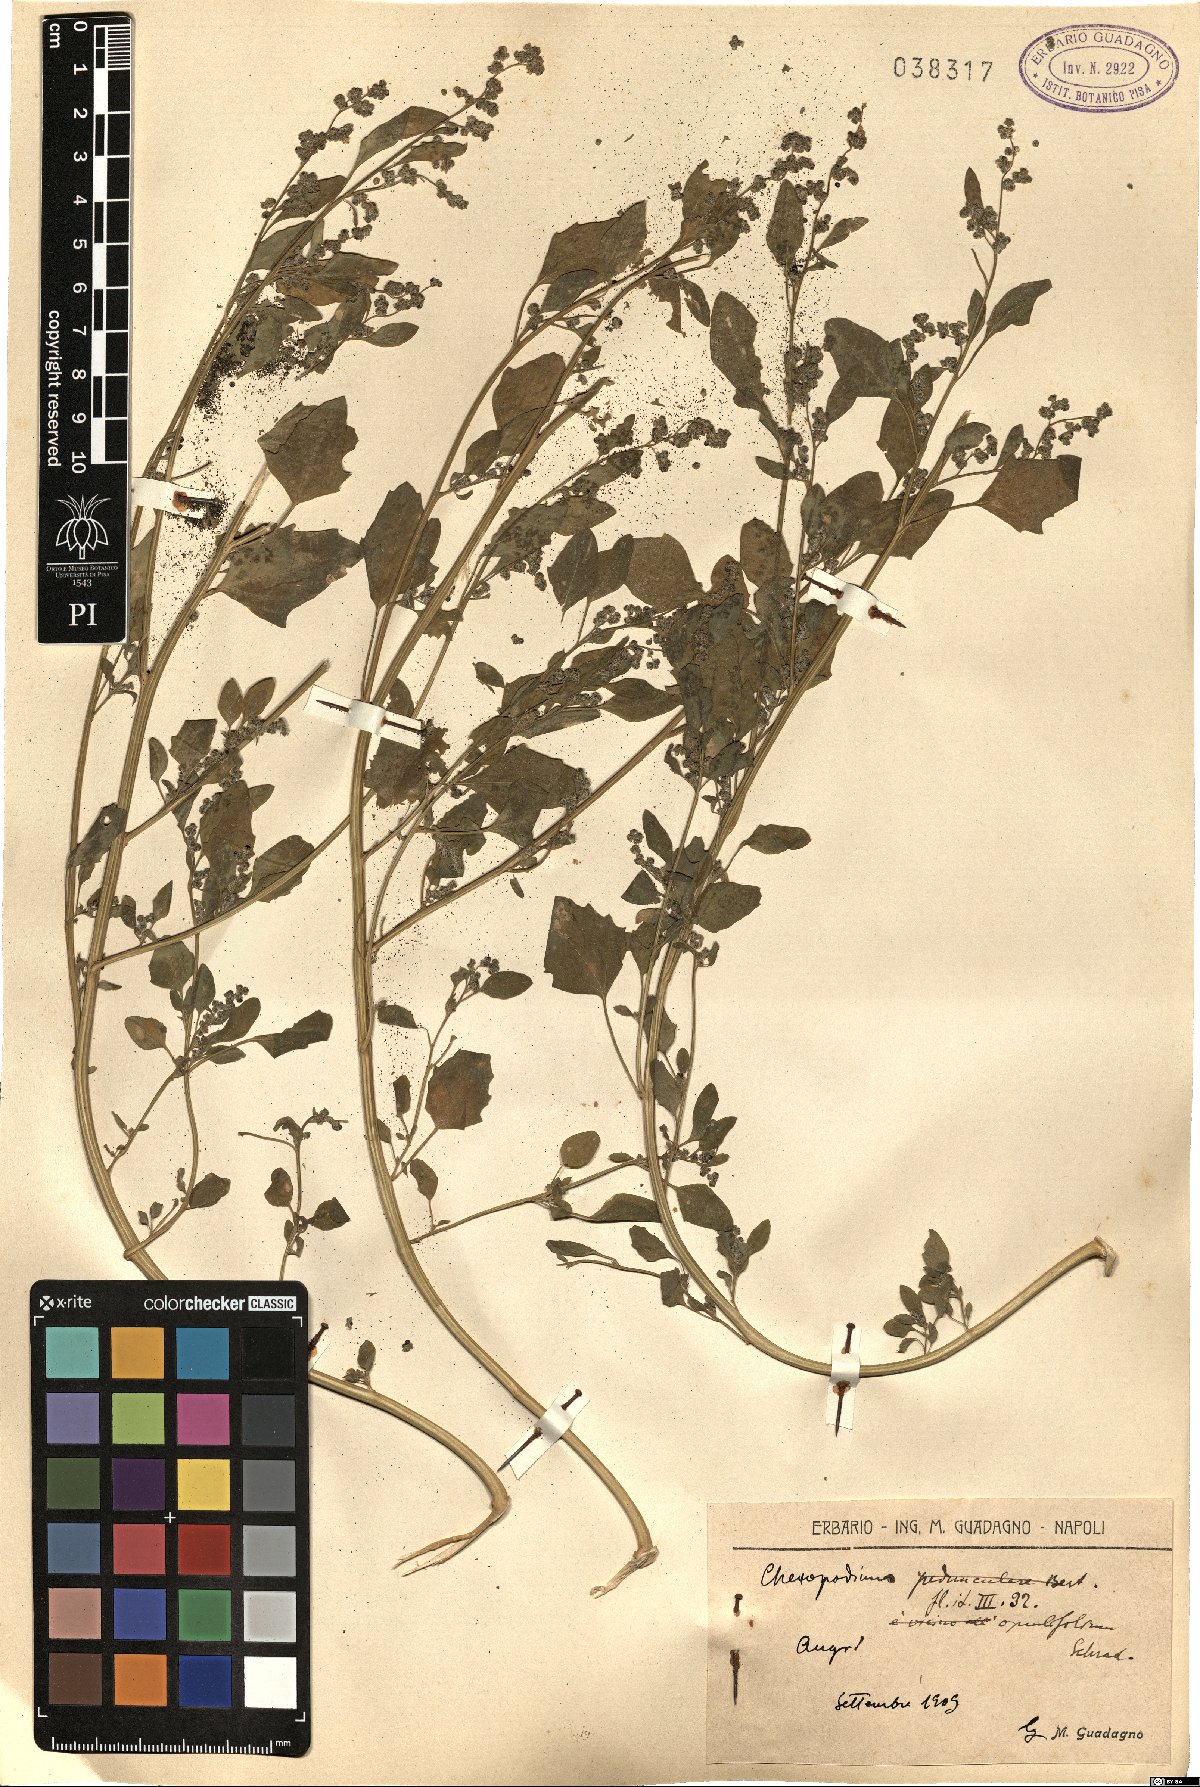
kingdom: Plantae
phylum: Tracheophyta
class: Magnoliopsida
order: Caryophyllales
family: Amaranthaceae
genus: Chenopodium
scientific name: Chenopodium opulifolium
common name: Grey goosefoot
